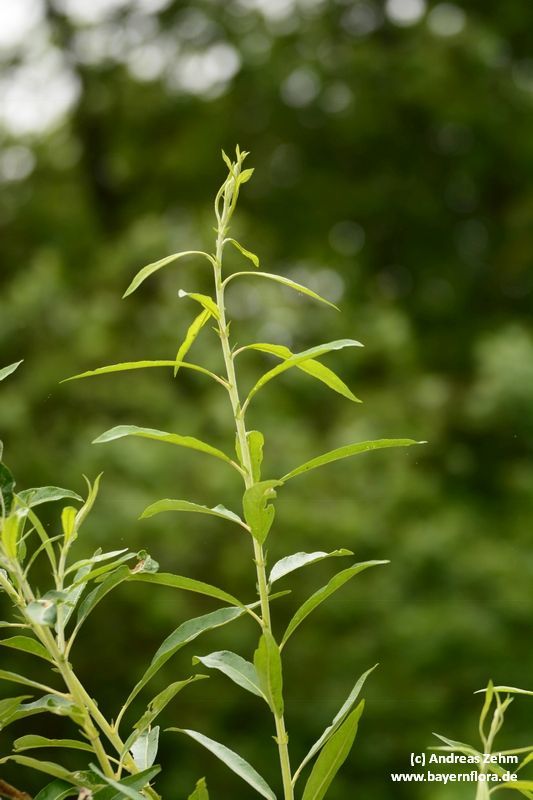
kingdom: Plantae
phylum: Tracheophyta
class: Magnoliopsida
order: Malpighiales
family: Salicaceae
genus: Salix
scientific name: Salix mollissima
